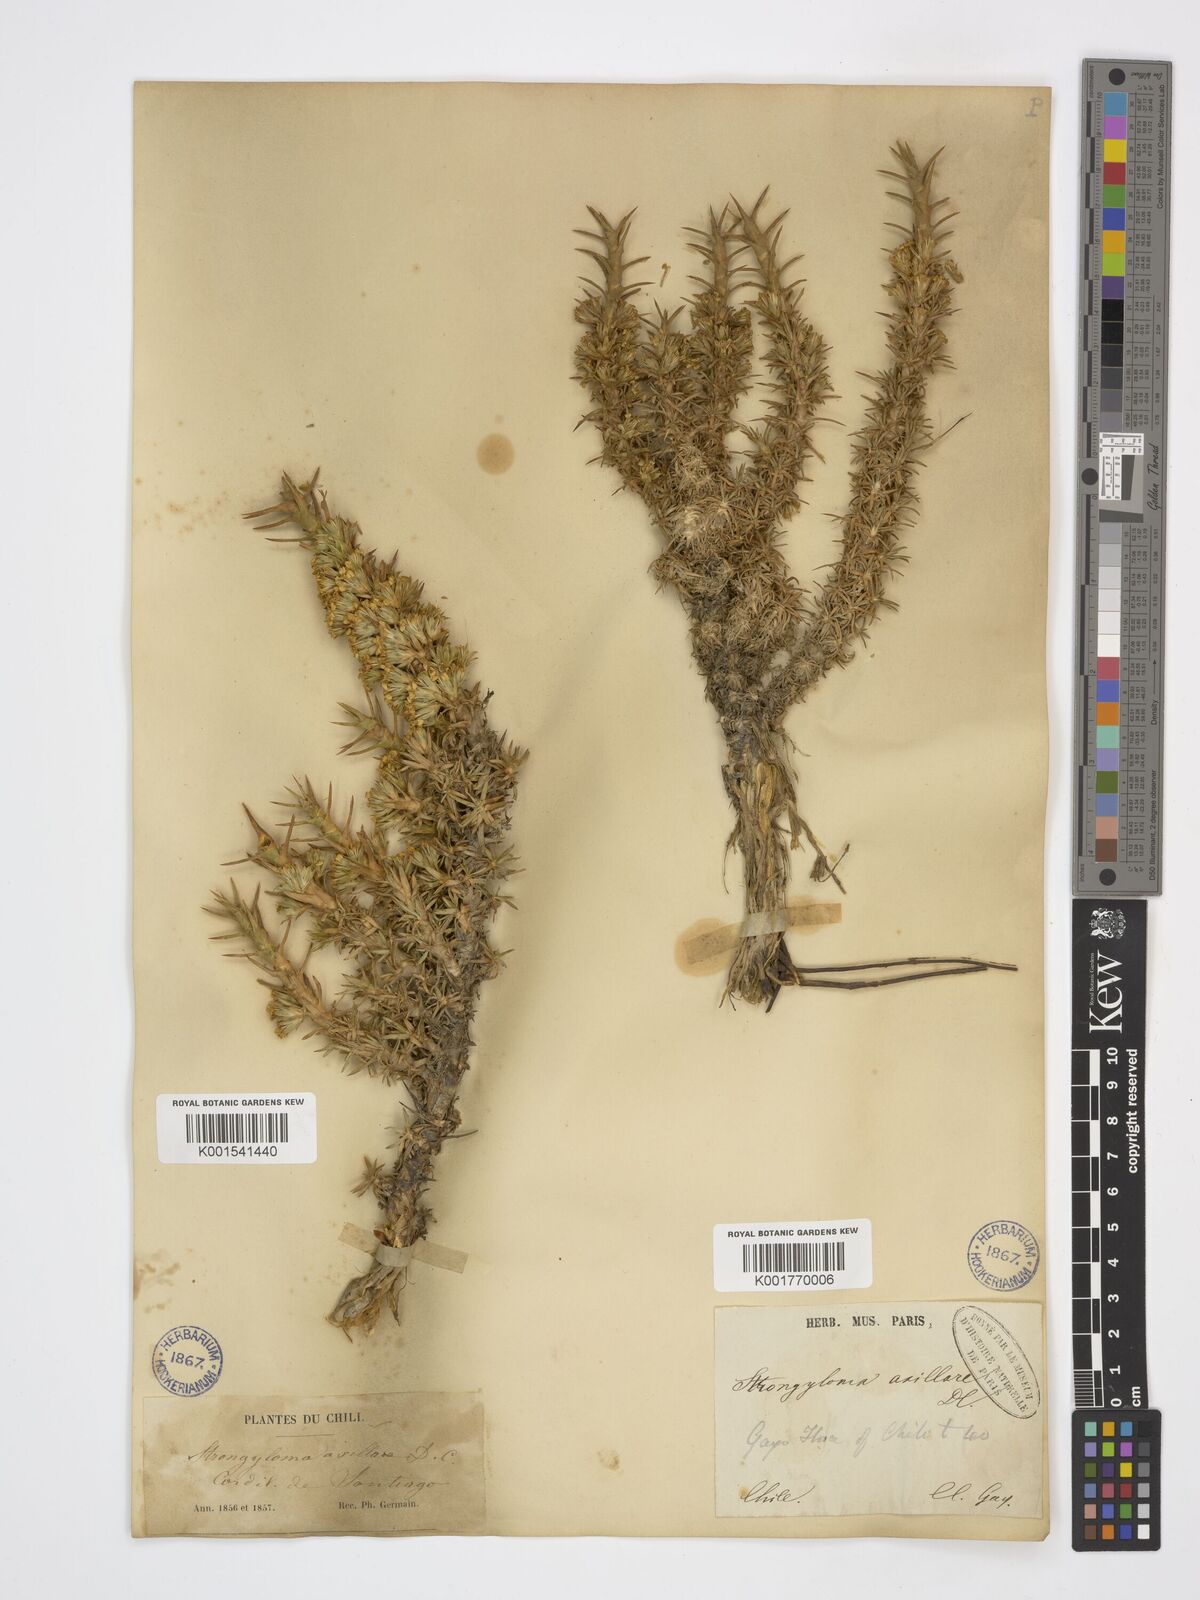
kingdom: Plantae
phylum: Tracheophyta
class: Magnoliopsida
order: Asterales
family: Asteraceae
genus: Nassauvia
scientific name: Nassauvia axillaris
